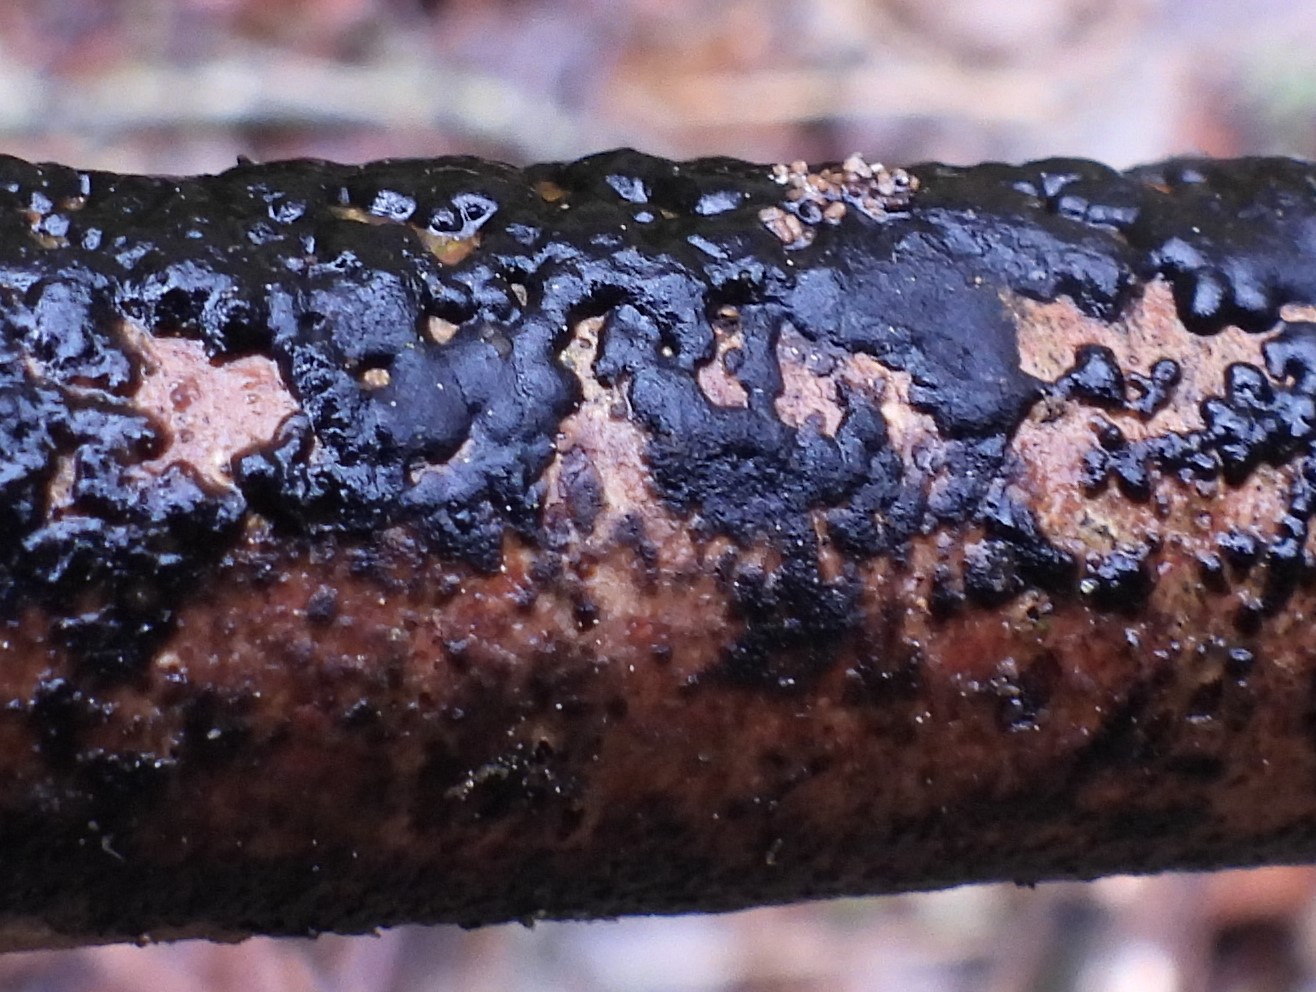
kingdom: Fungi
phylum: Ascomycota
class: Leotiomycetes
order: Helotiales
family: Mollisiaceae
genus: Cheirospora
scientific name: Cheirospora botryospora
